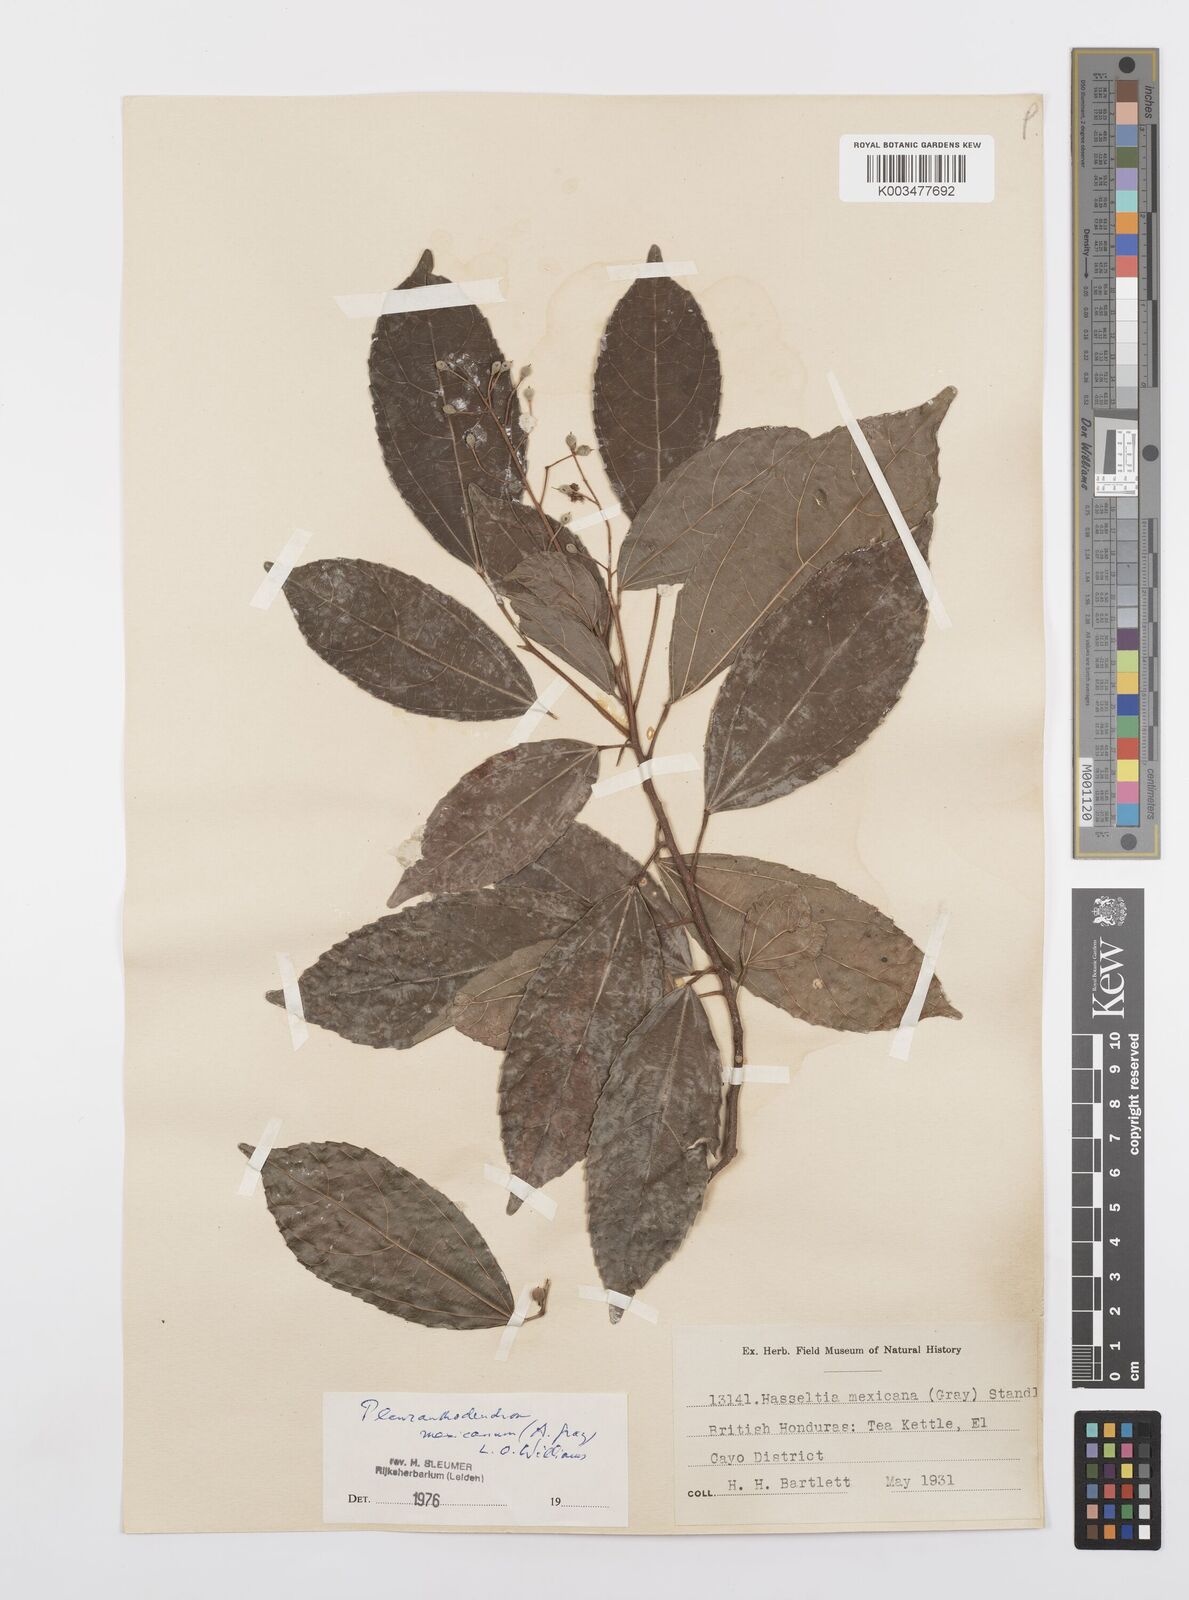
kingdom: Plantae
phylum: Tracheophyta
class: Magnoliopsida
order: Malpighiales
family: Salicaceae
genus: Pleuranthodendron
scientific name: Pleuranthodendron lindenii
